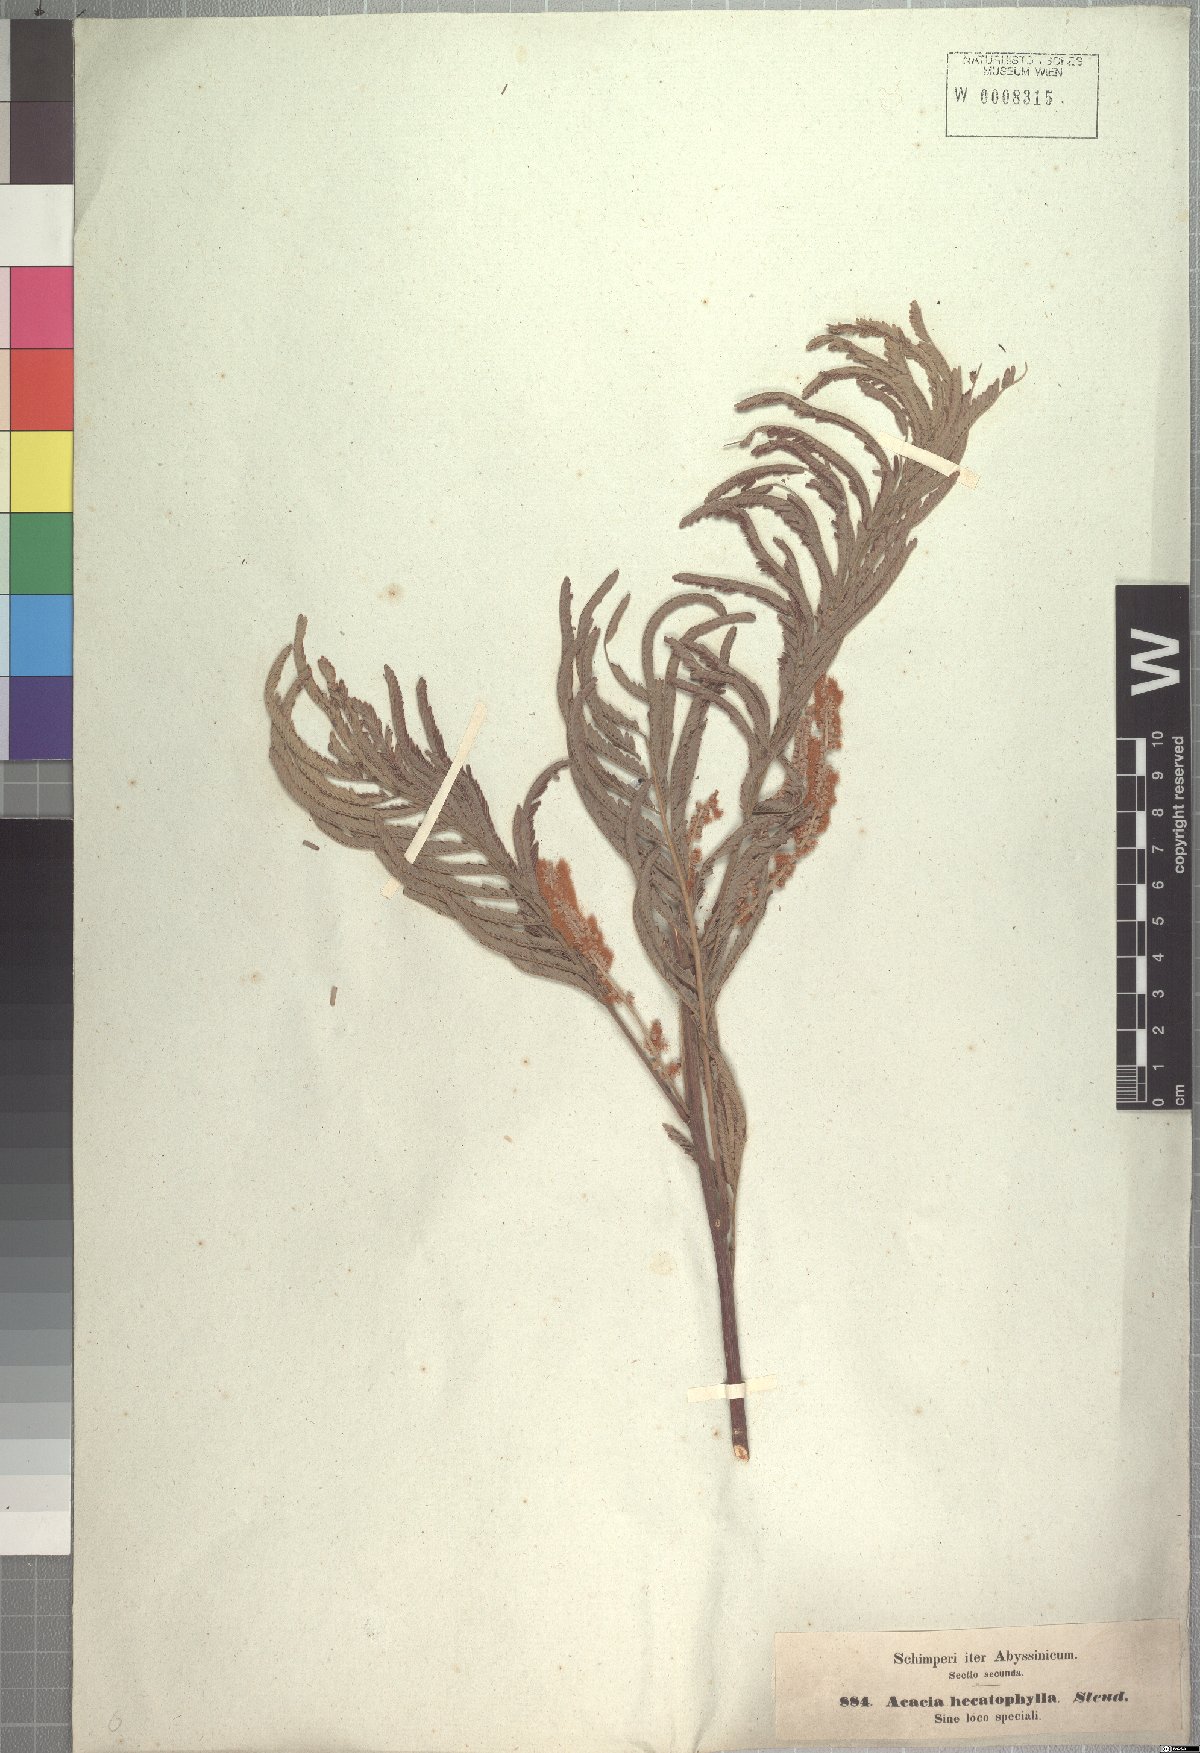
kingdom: Plantae
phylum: Tracheophyta
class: Magnoliopsida
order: Fabales
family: Fabaceae
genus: Senegalia
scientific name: Senegalia hecatophylla
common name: Long pod
